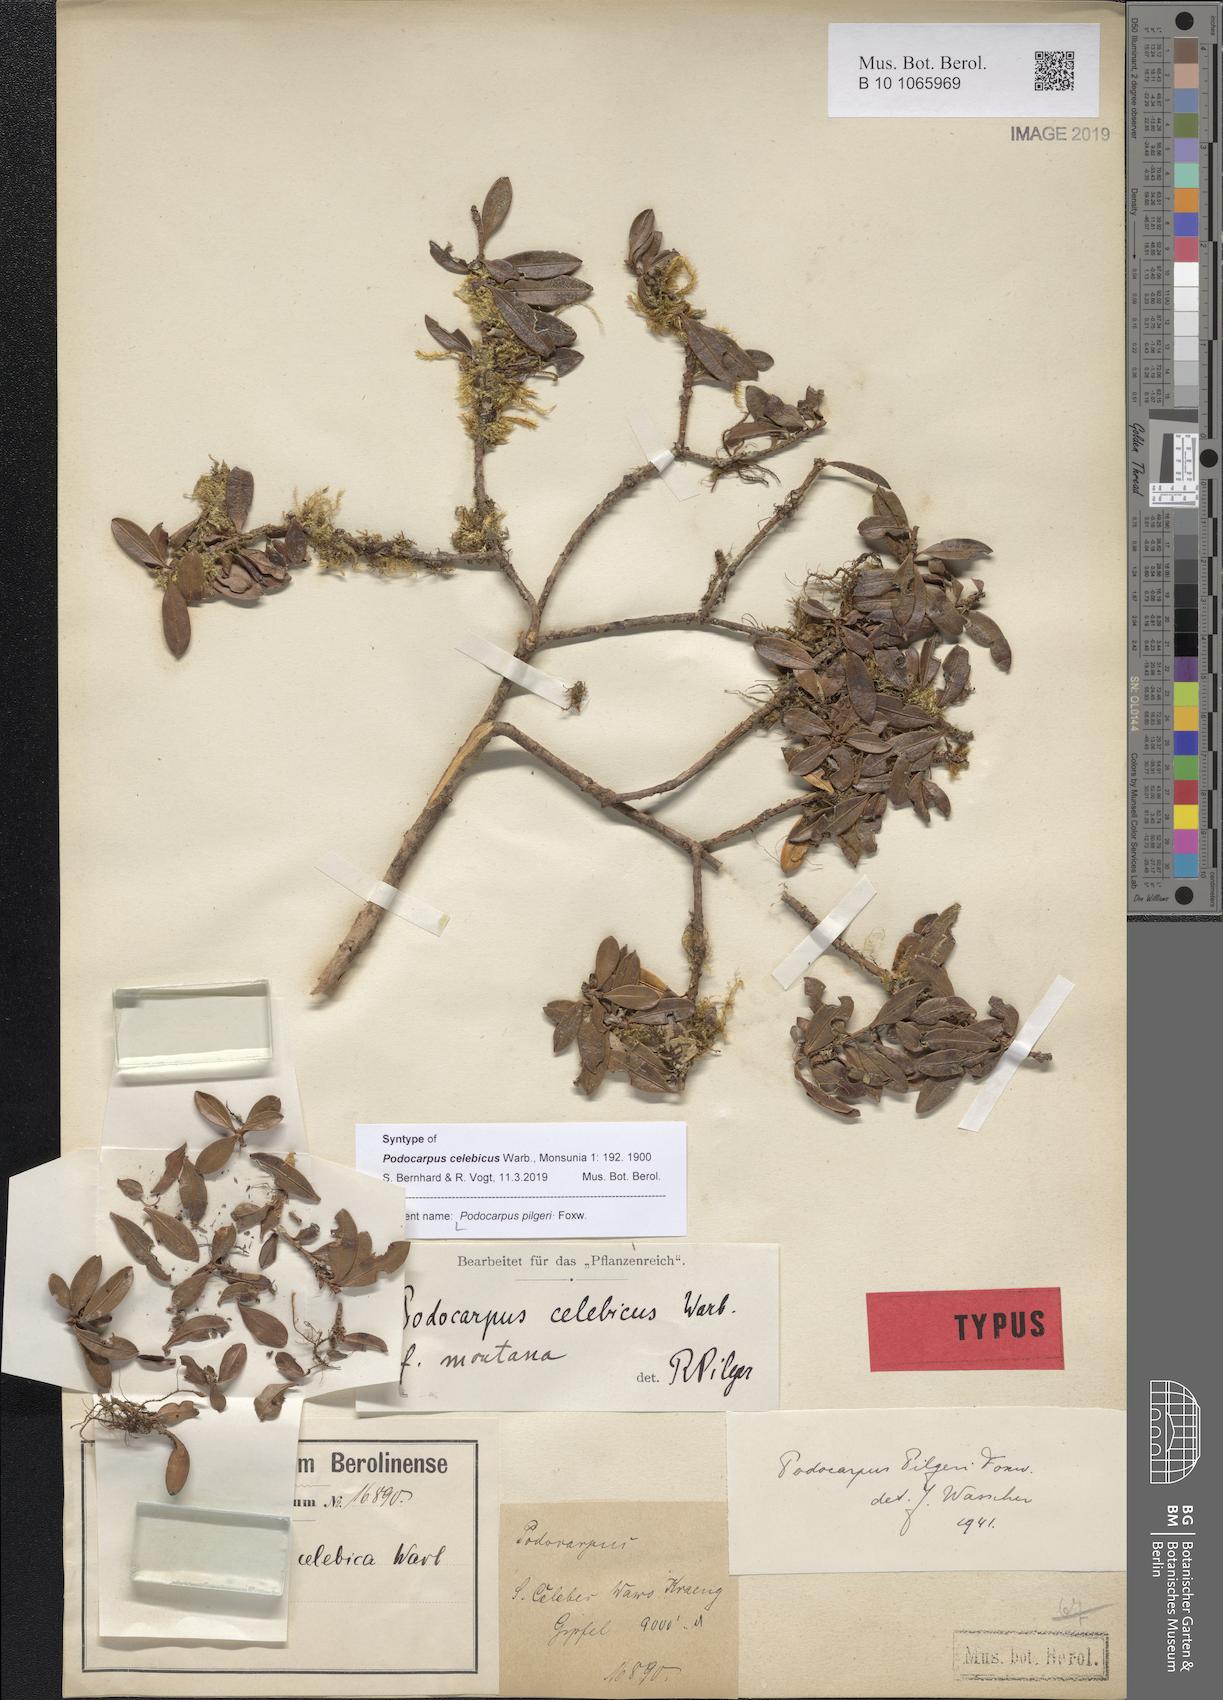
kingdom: Plantae
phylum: Tracheophyta
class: Pinopsida
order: Pinales
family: Podocarpaceae
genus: Podocarpus
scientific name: Podocarpus pilgeri
